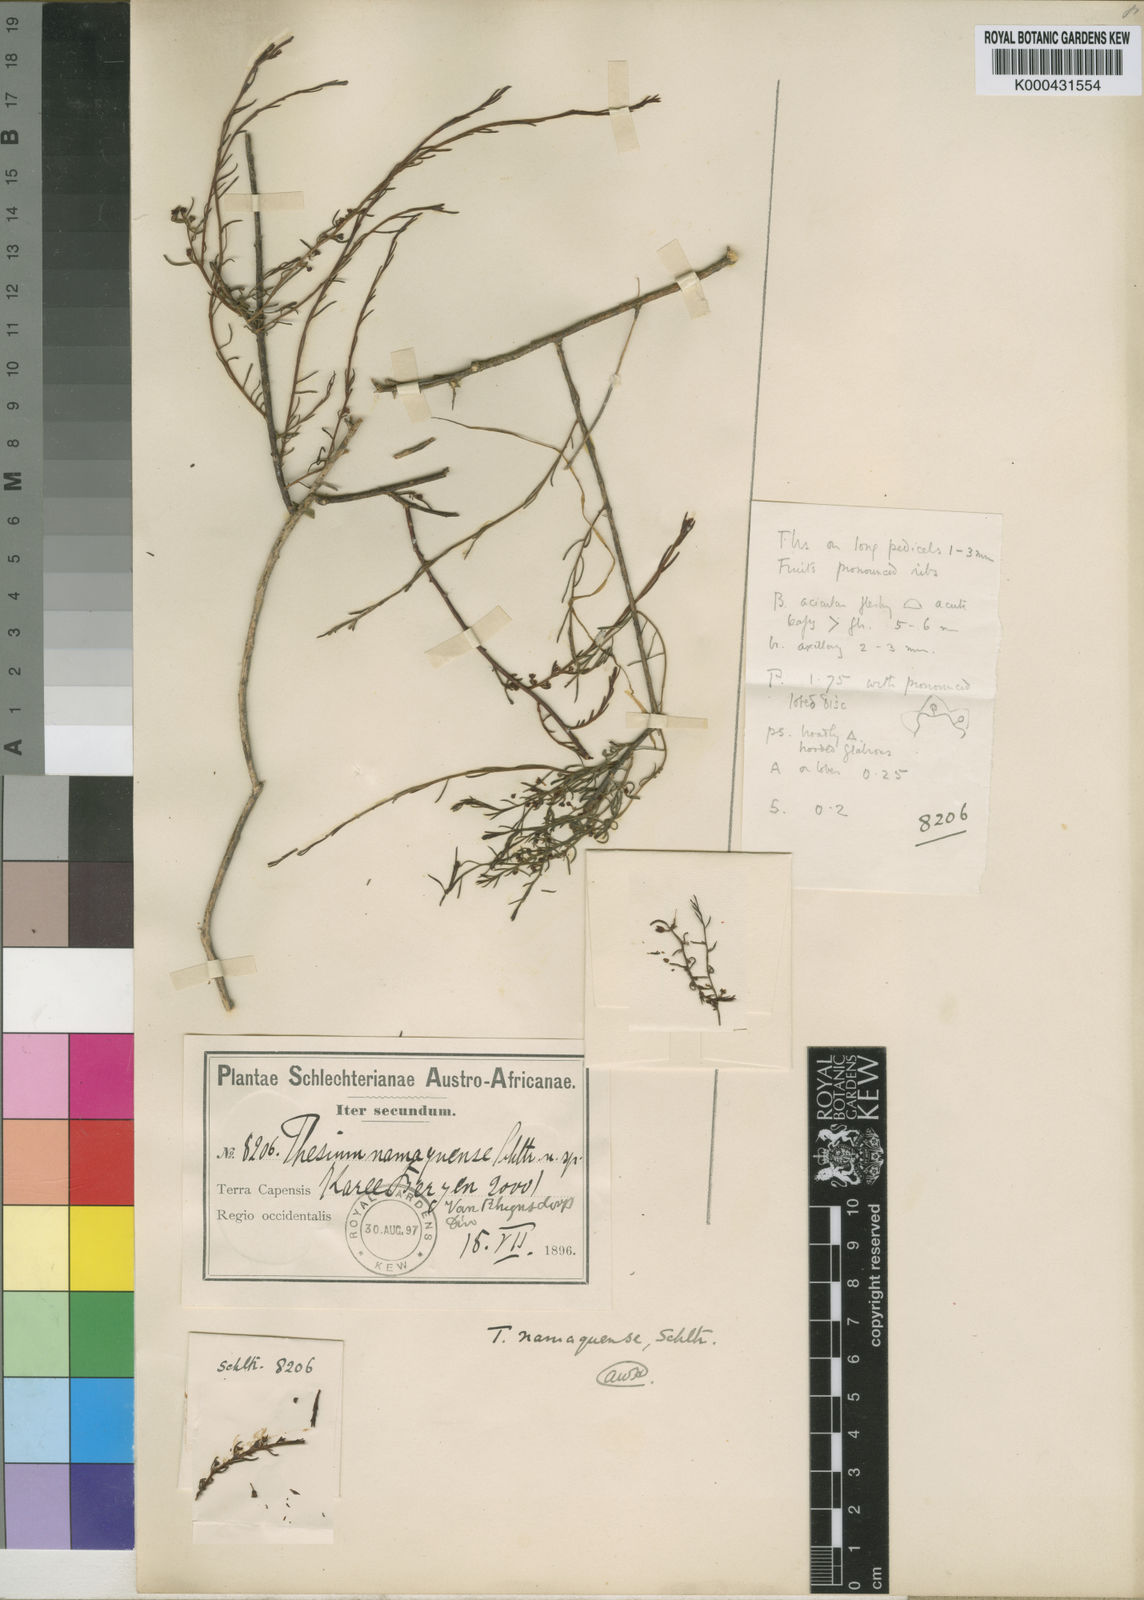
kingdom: Plantae
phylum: Tracheophyta
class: Magnoliopsida
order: Santalales
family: Thesiaceae
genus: Thesium
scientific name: Thesium namaquense
